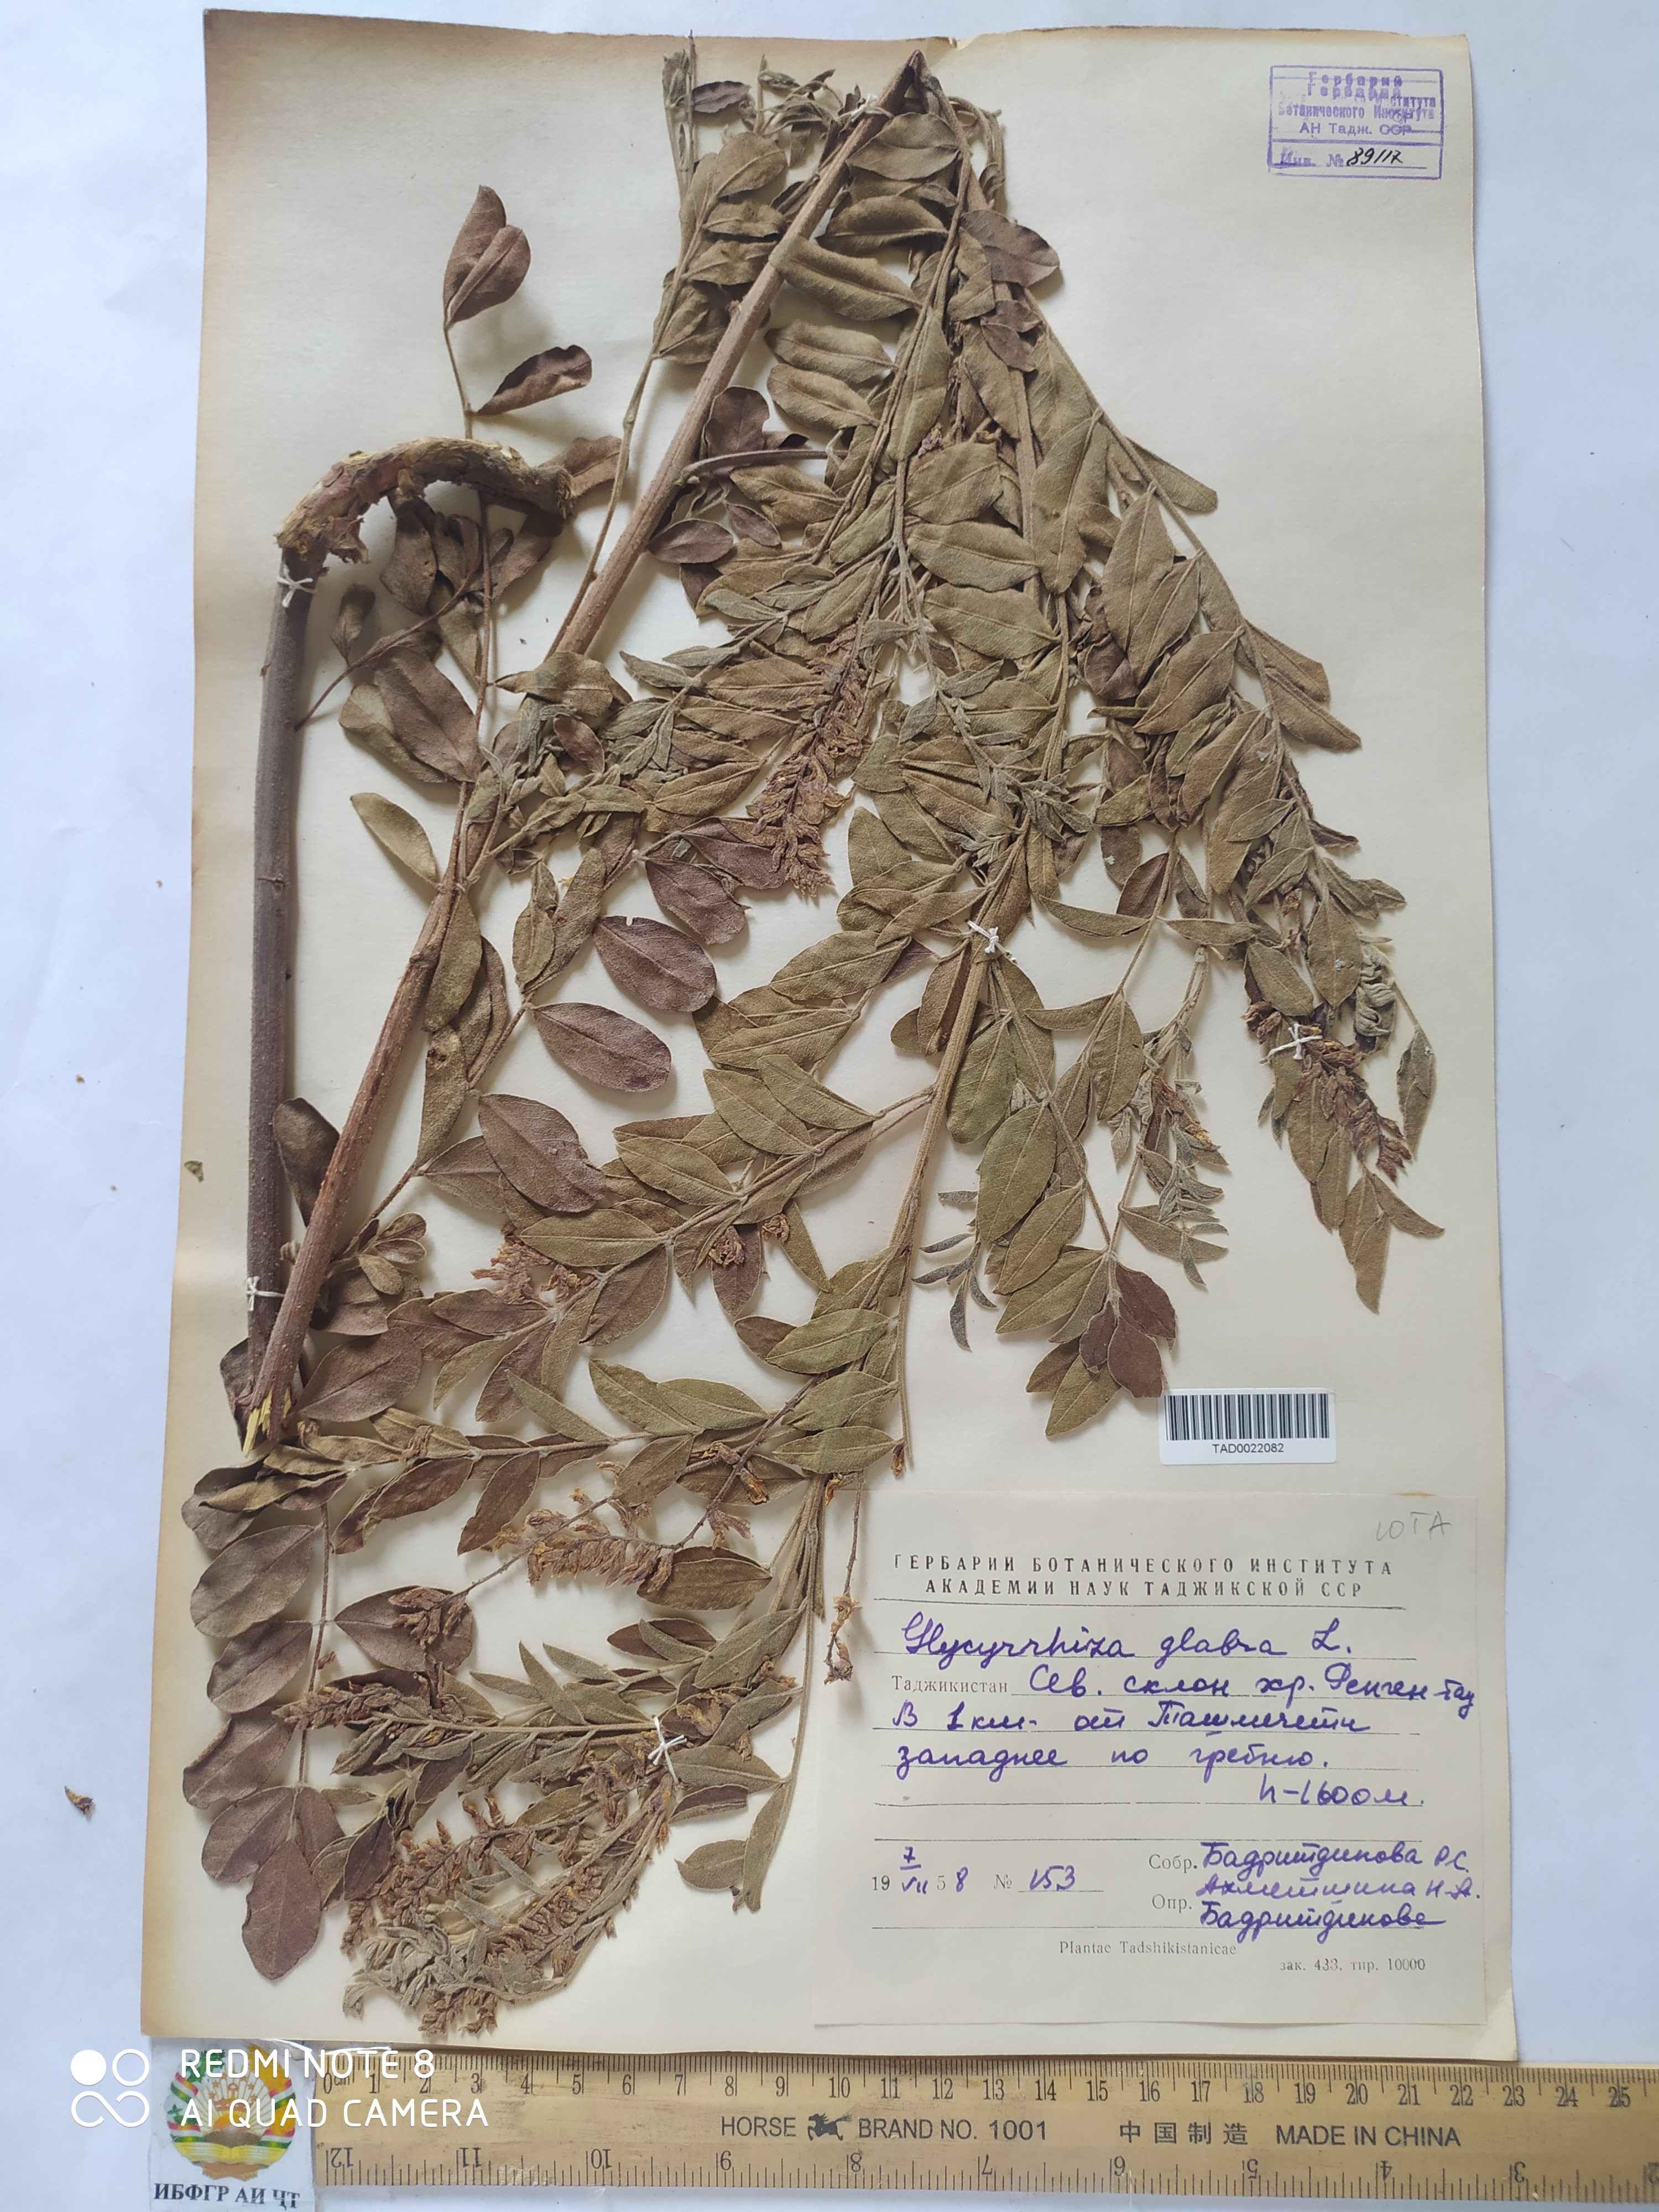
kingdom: Plantae
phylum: Tracheophyta
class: Magnoliopsida
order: Fabales
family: Fabaceae
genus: Glycyrrhiza
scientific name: Glycyrrhiza glabra
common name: Liquorice
